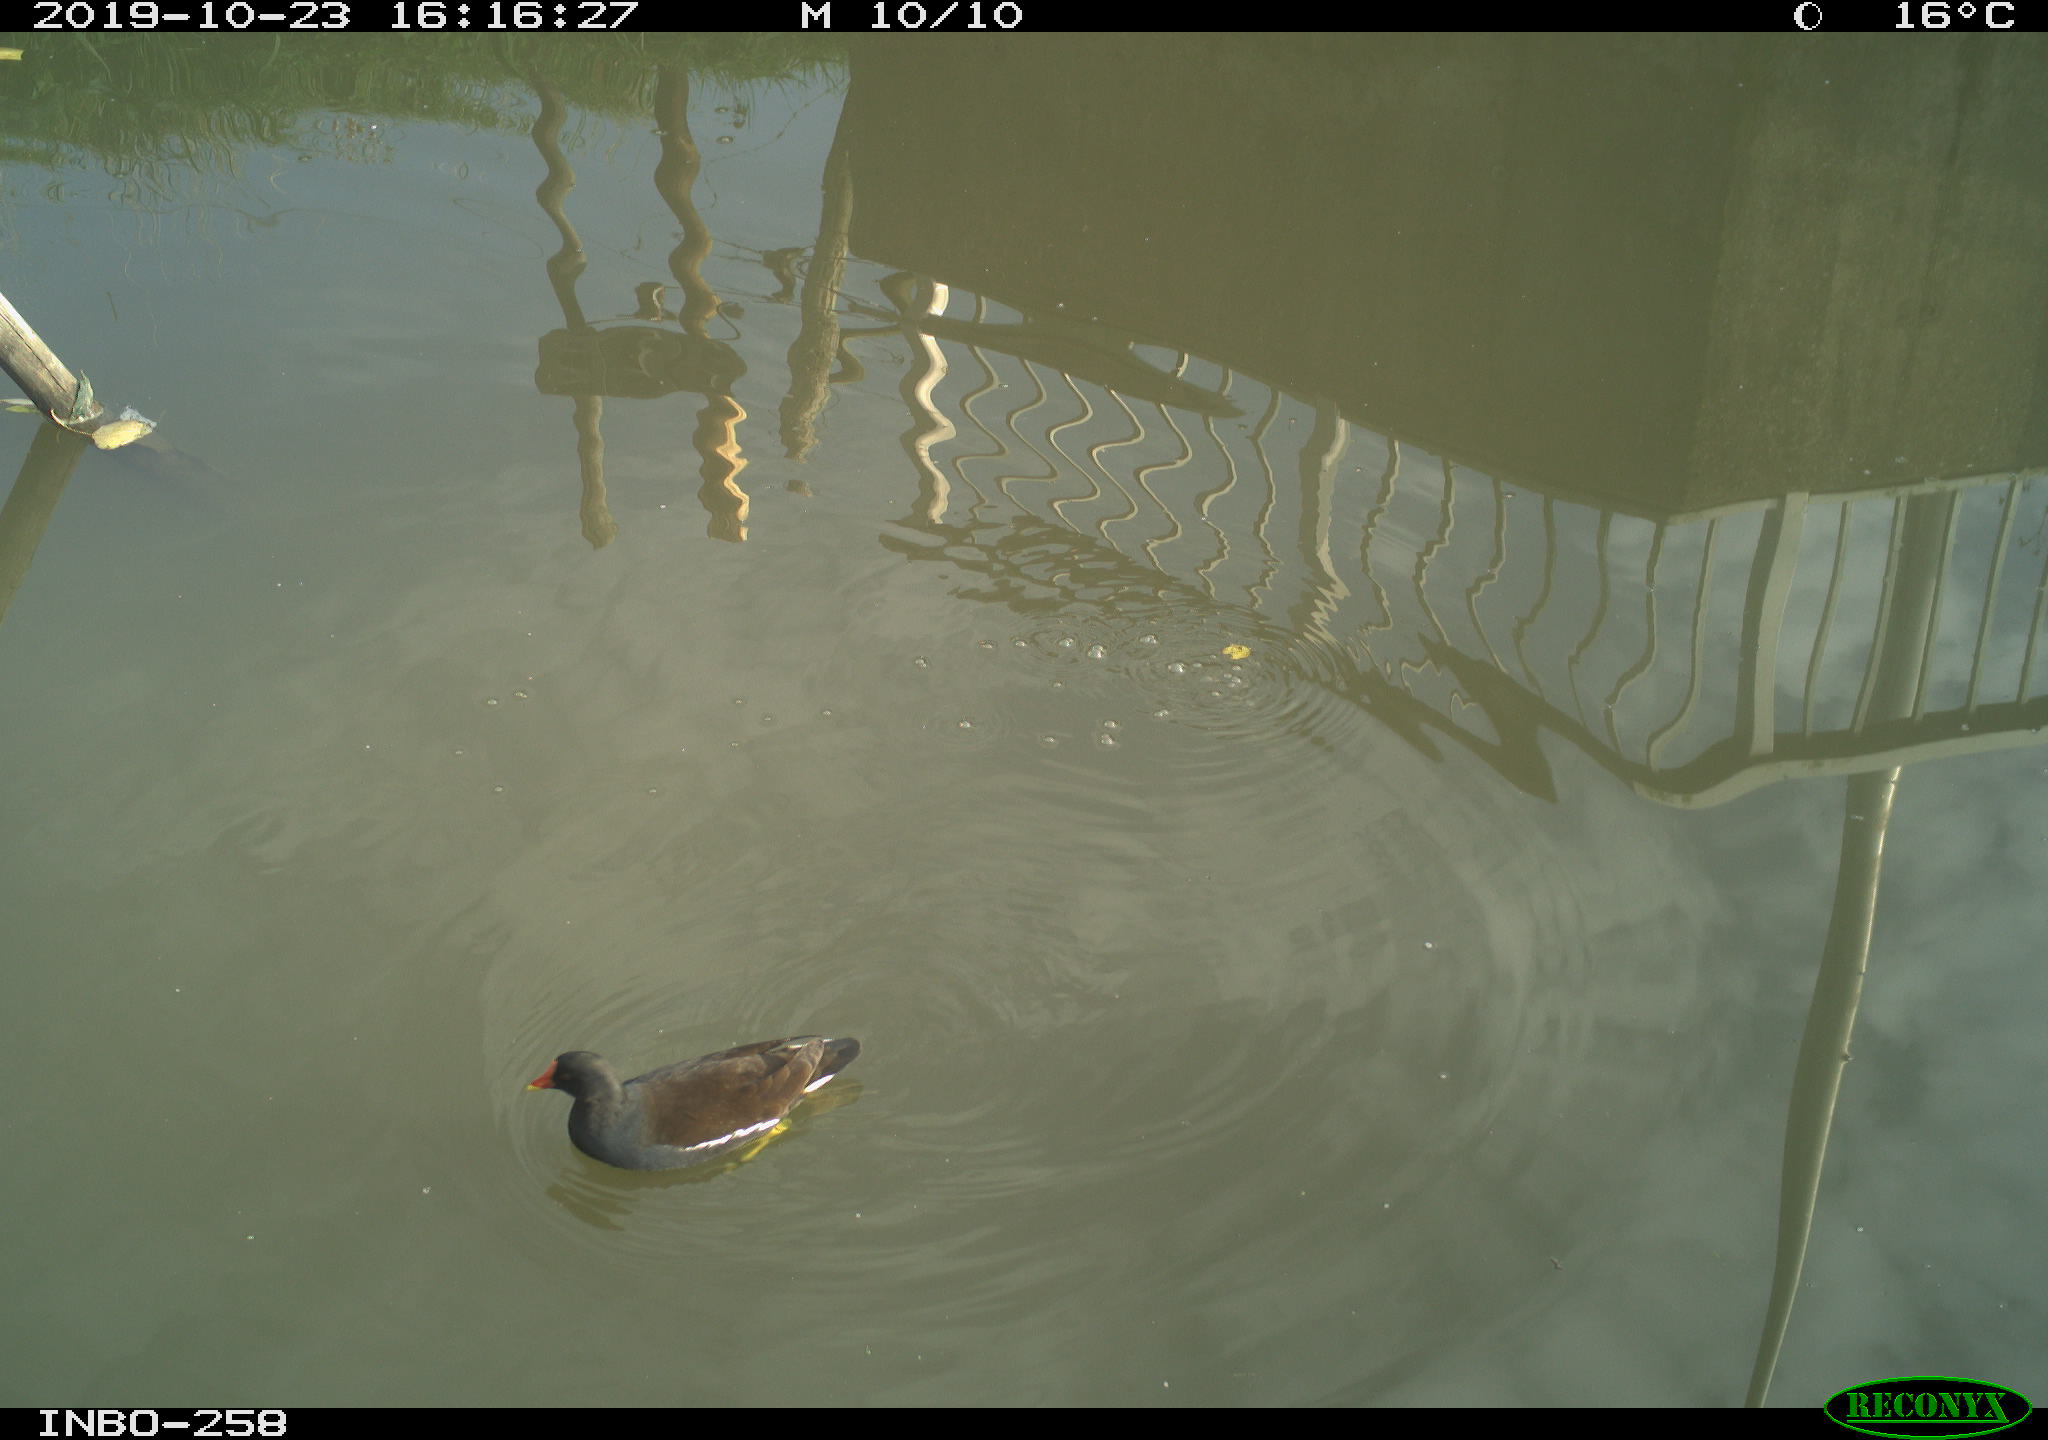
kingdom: Animalia
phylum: Chordata
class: Aves
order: Gruiformes
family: Rallidae
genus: Gallinula
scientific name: Gallinula chloropus
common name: Common moorhen
